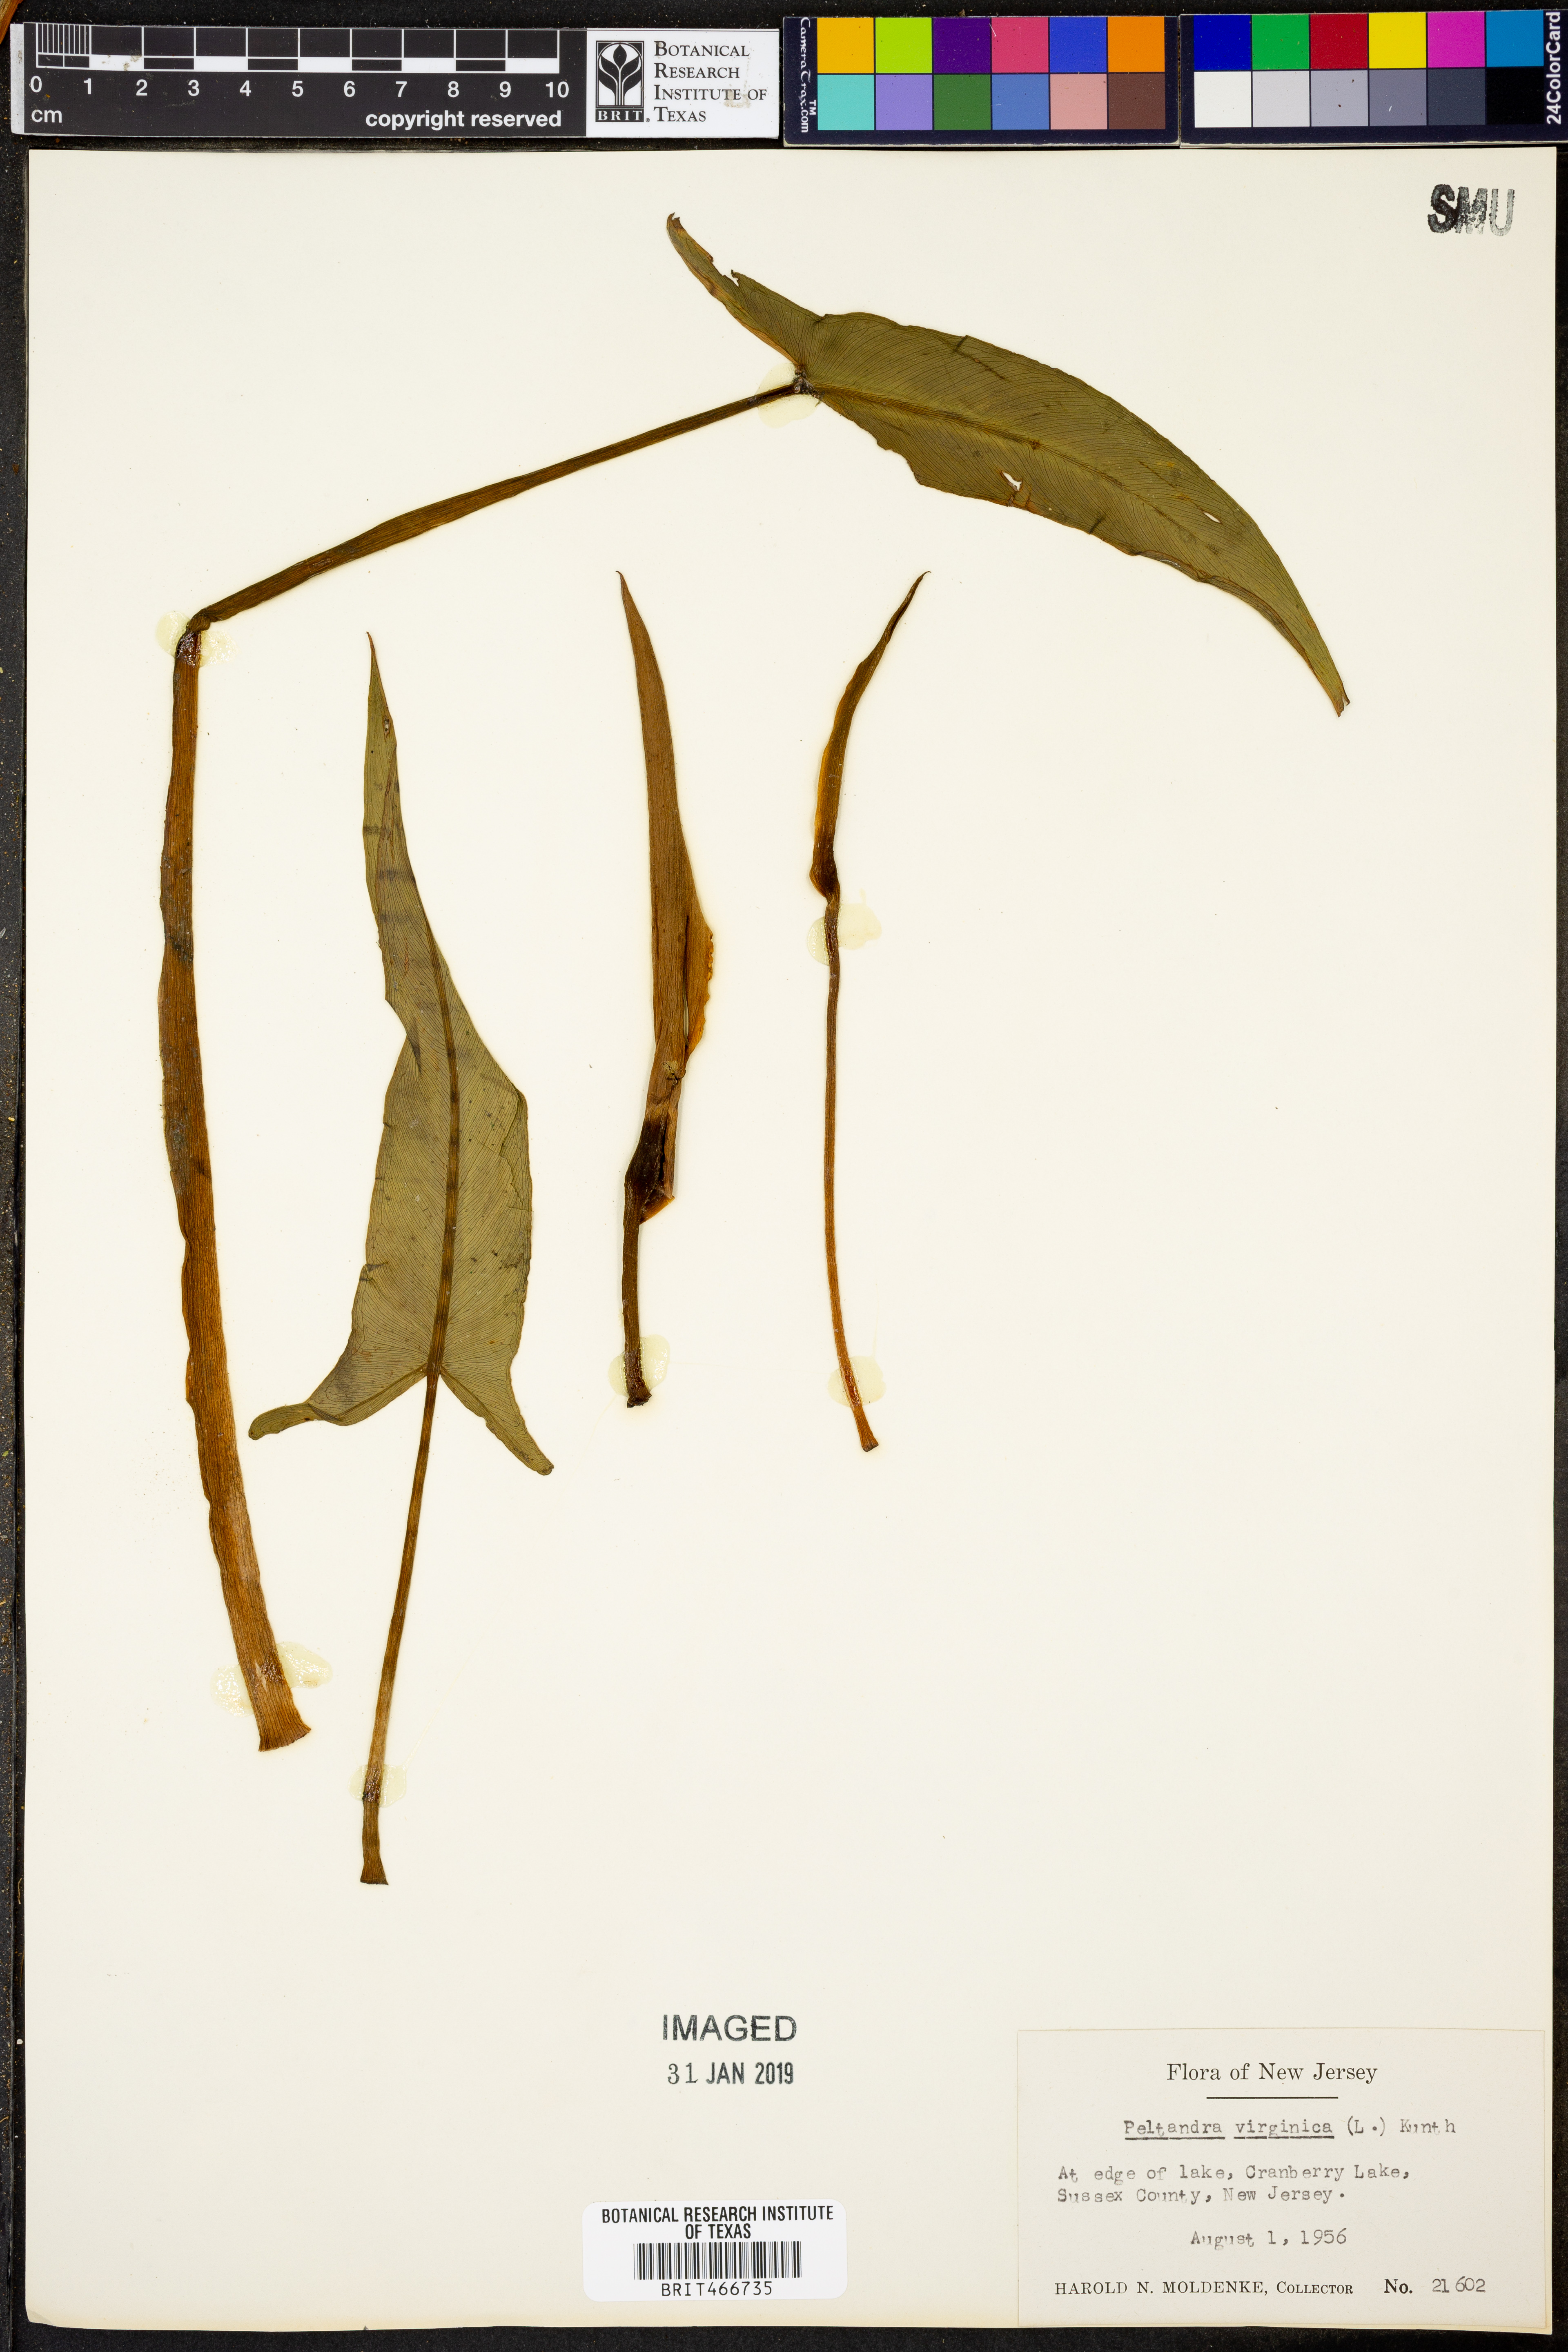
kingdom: Plantae
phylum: Tracheophyta
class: Liliopsida
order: Alismatales
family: Araceae
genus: Peltandra
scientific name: Peltandra virginica
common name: Arrow arum
